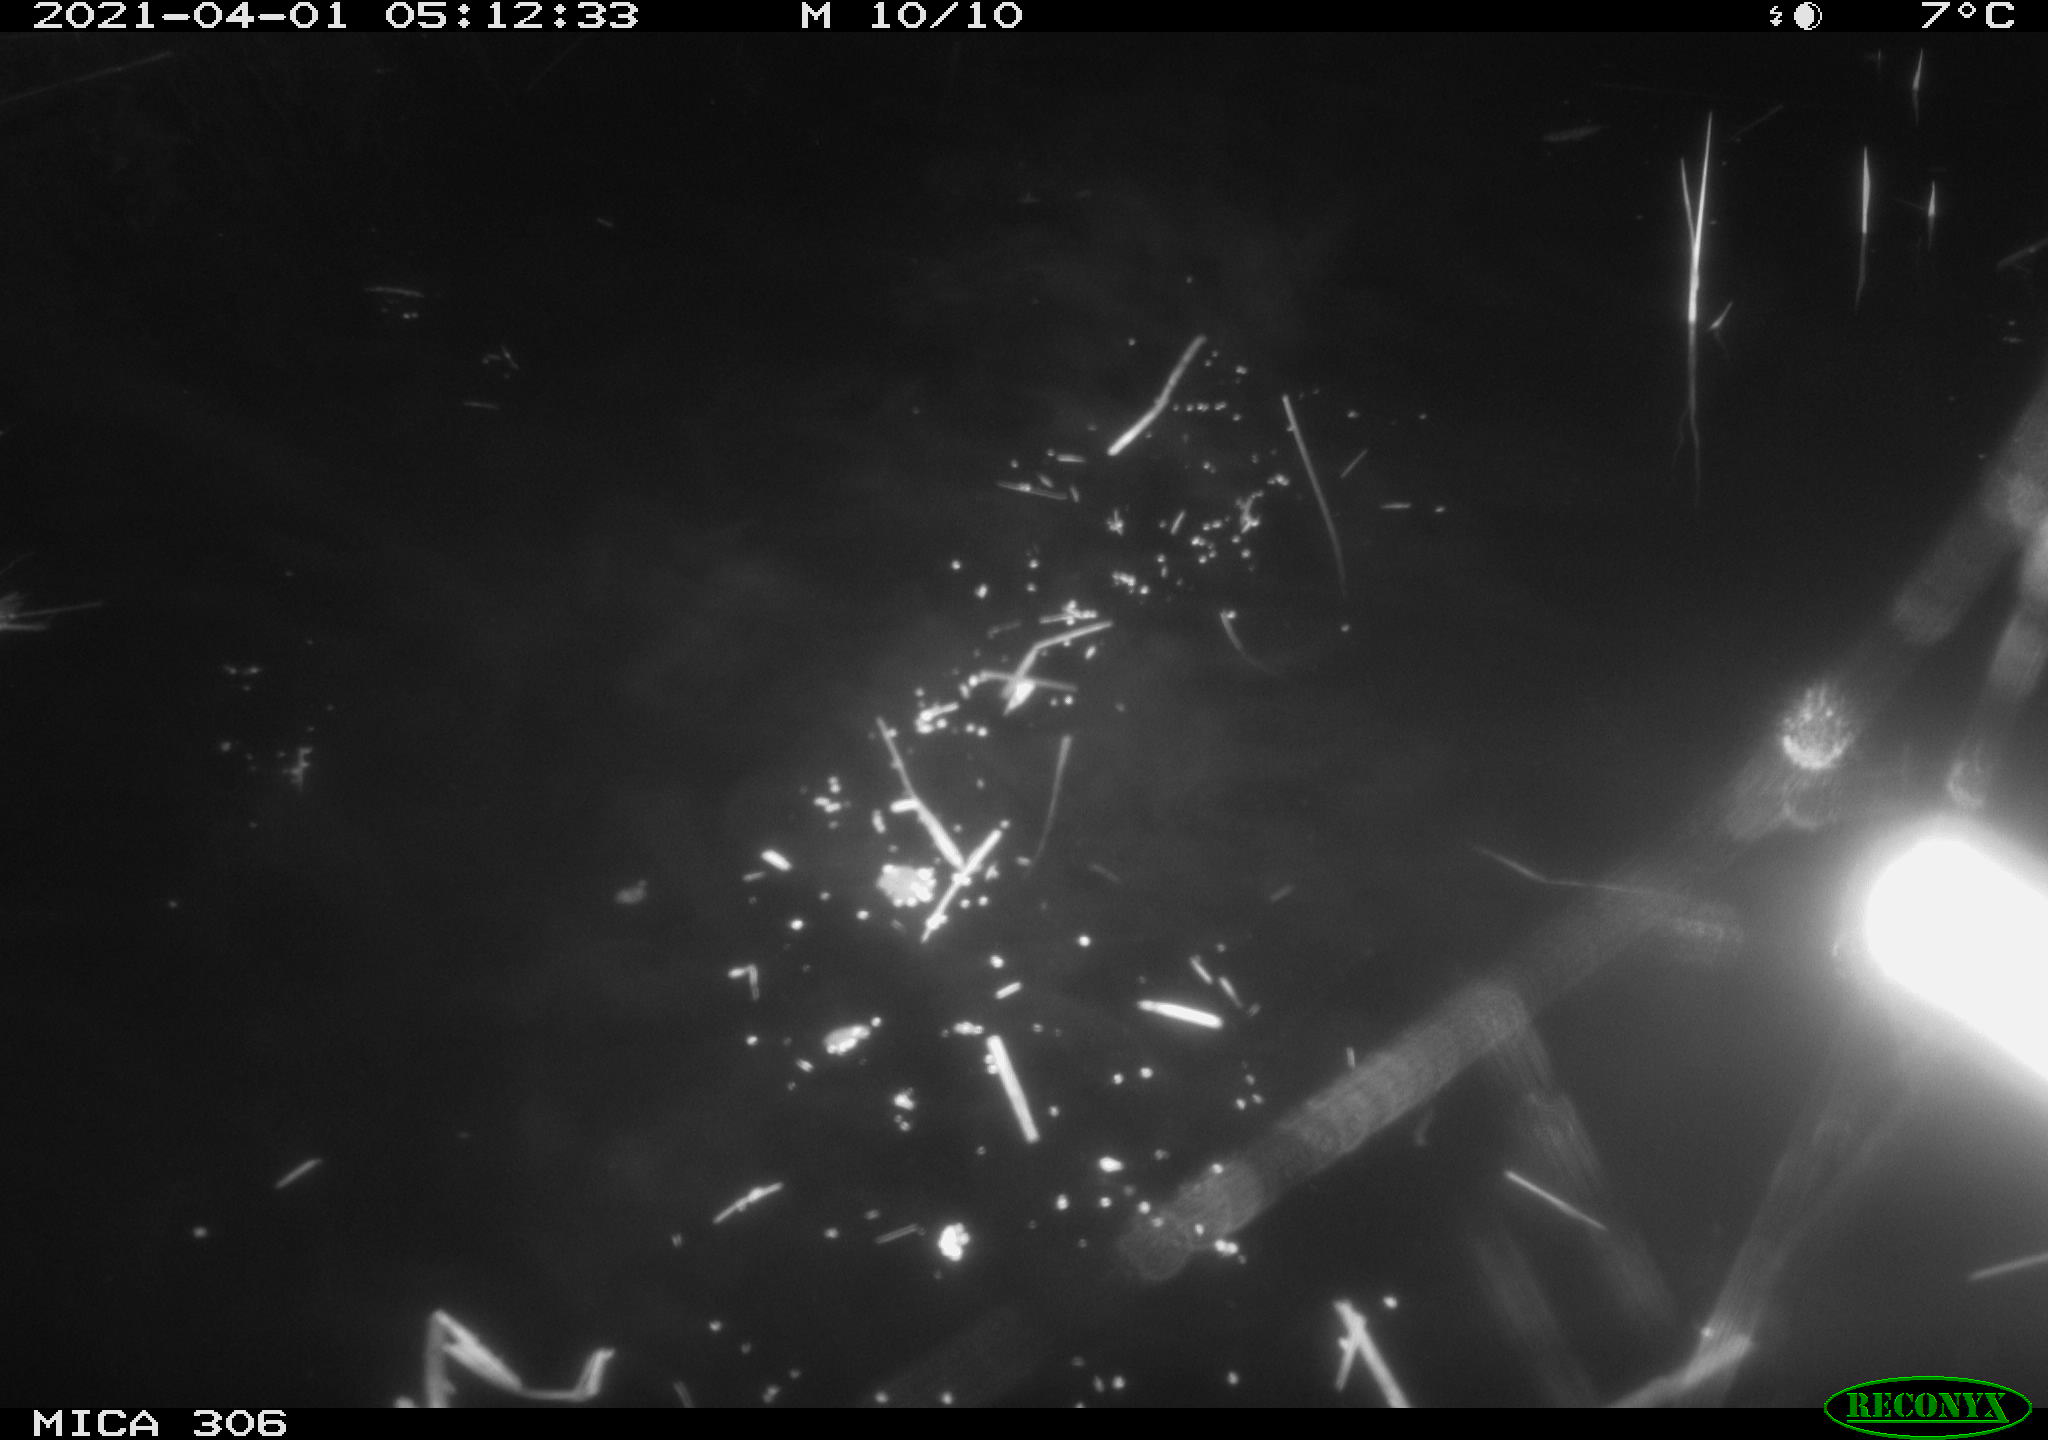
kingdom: Animalia
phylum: Chordata
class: Mammalia
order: Rodentia
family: Cricetidae
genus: Ondatra
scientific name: Ondatra zibethicus
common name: Muskrat
